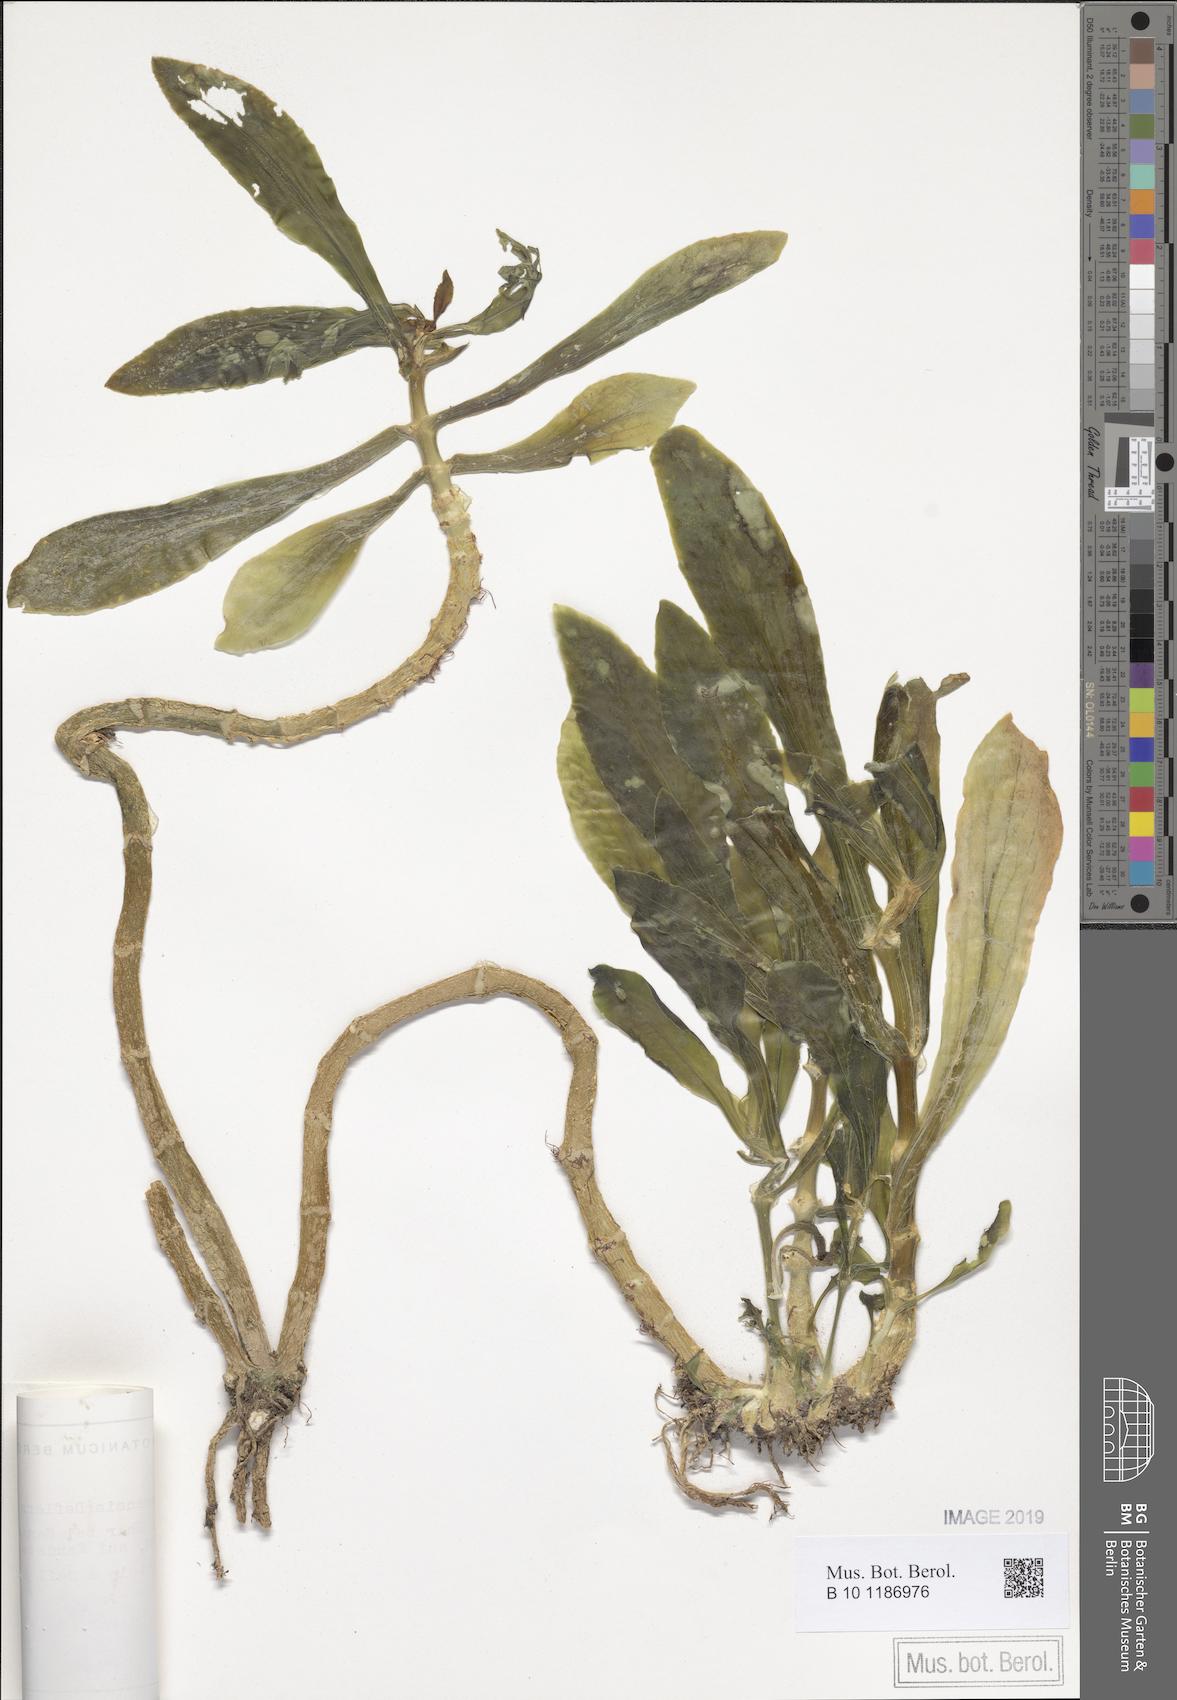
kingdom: Plantae
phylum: Tracheophyta
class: Magnoliopsida
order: Saxifragales
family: Crassulaceae
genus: Kalanchoe
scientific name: Kalanchoe yemensis
